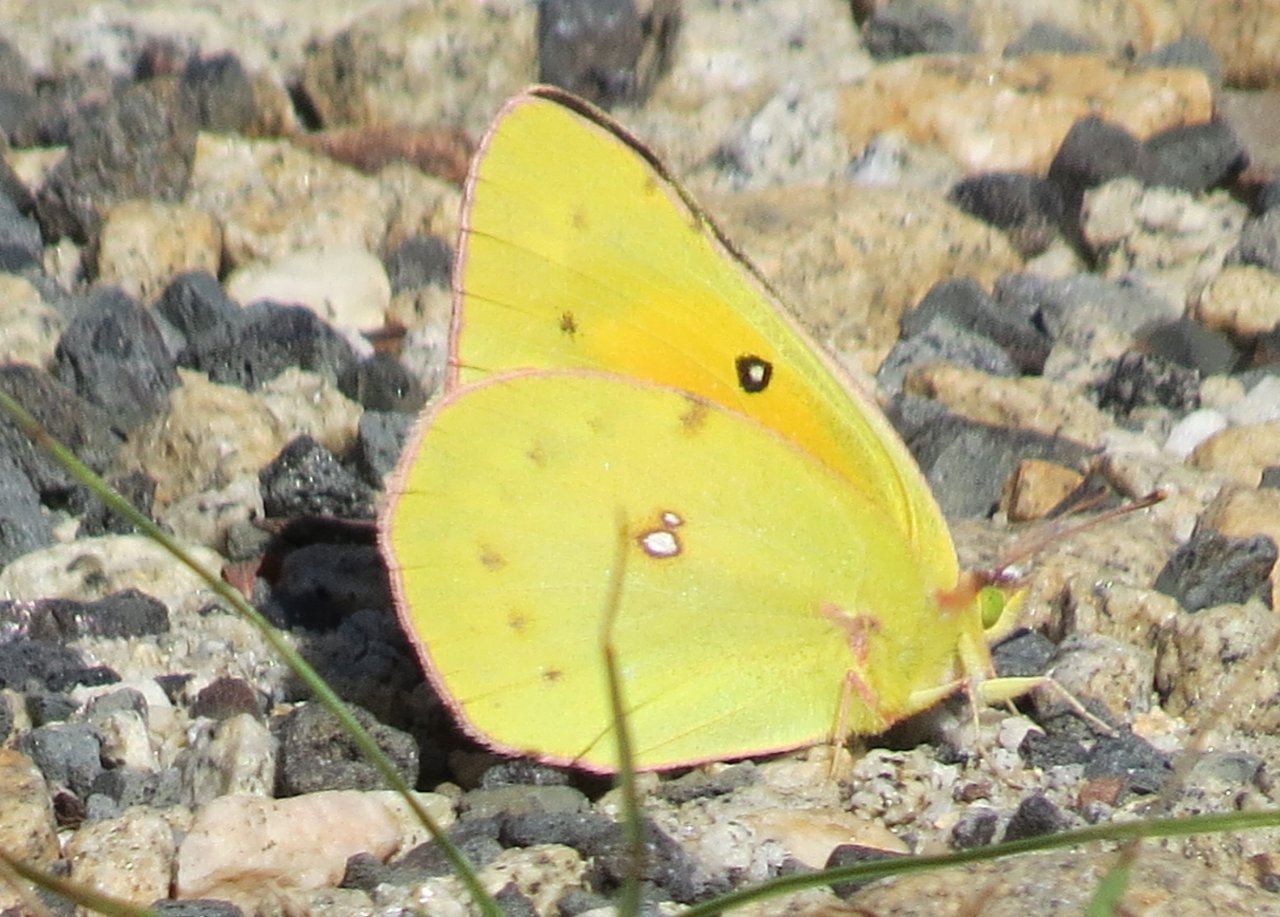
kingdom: Animalia
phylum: Arthropoda
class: Insecta
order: Lepidoptera
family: Pieridae
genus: Colias
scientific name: Colias eurytheme
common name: Orange Sulphur
